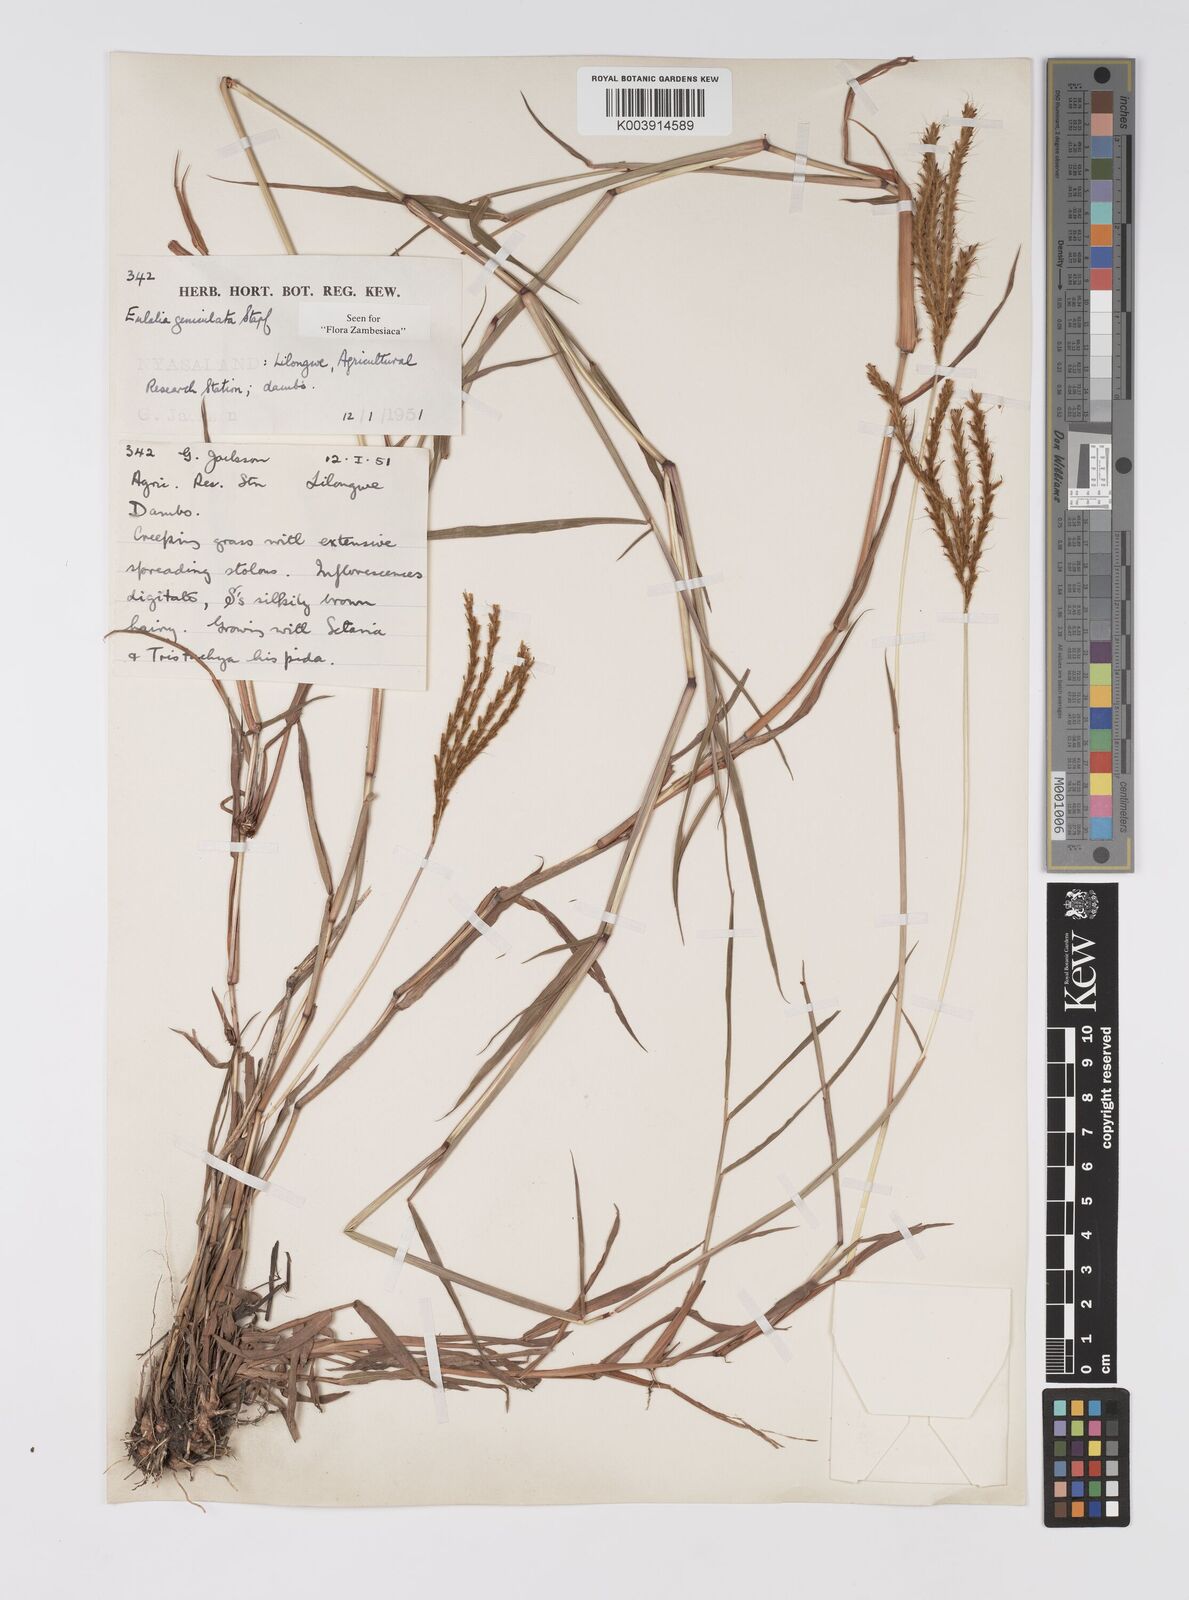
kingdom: Plantae
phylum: Tracheophyta
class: Liliopsida
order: Poales
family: Poaceae
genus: Eulalia
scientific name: Eulalia aurea
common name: Silky browntop
